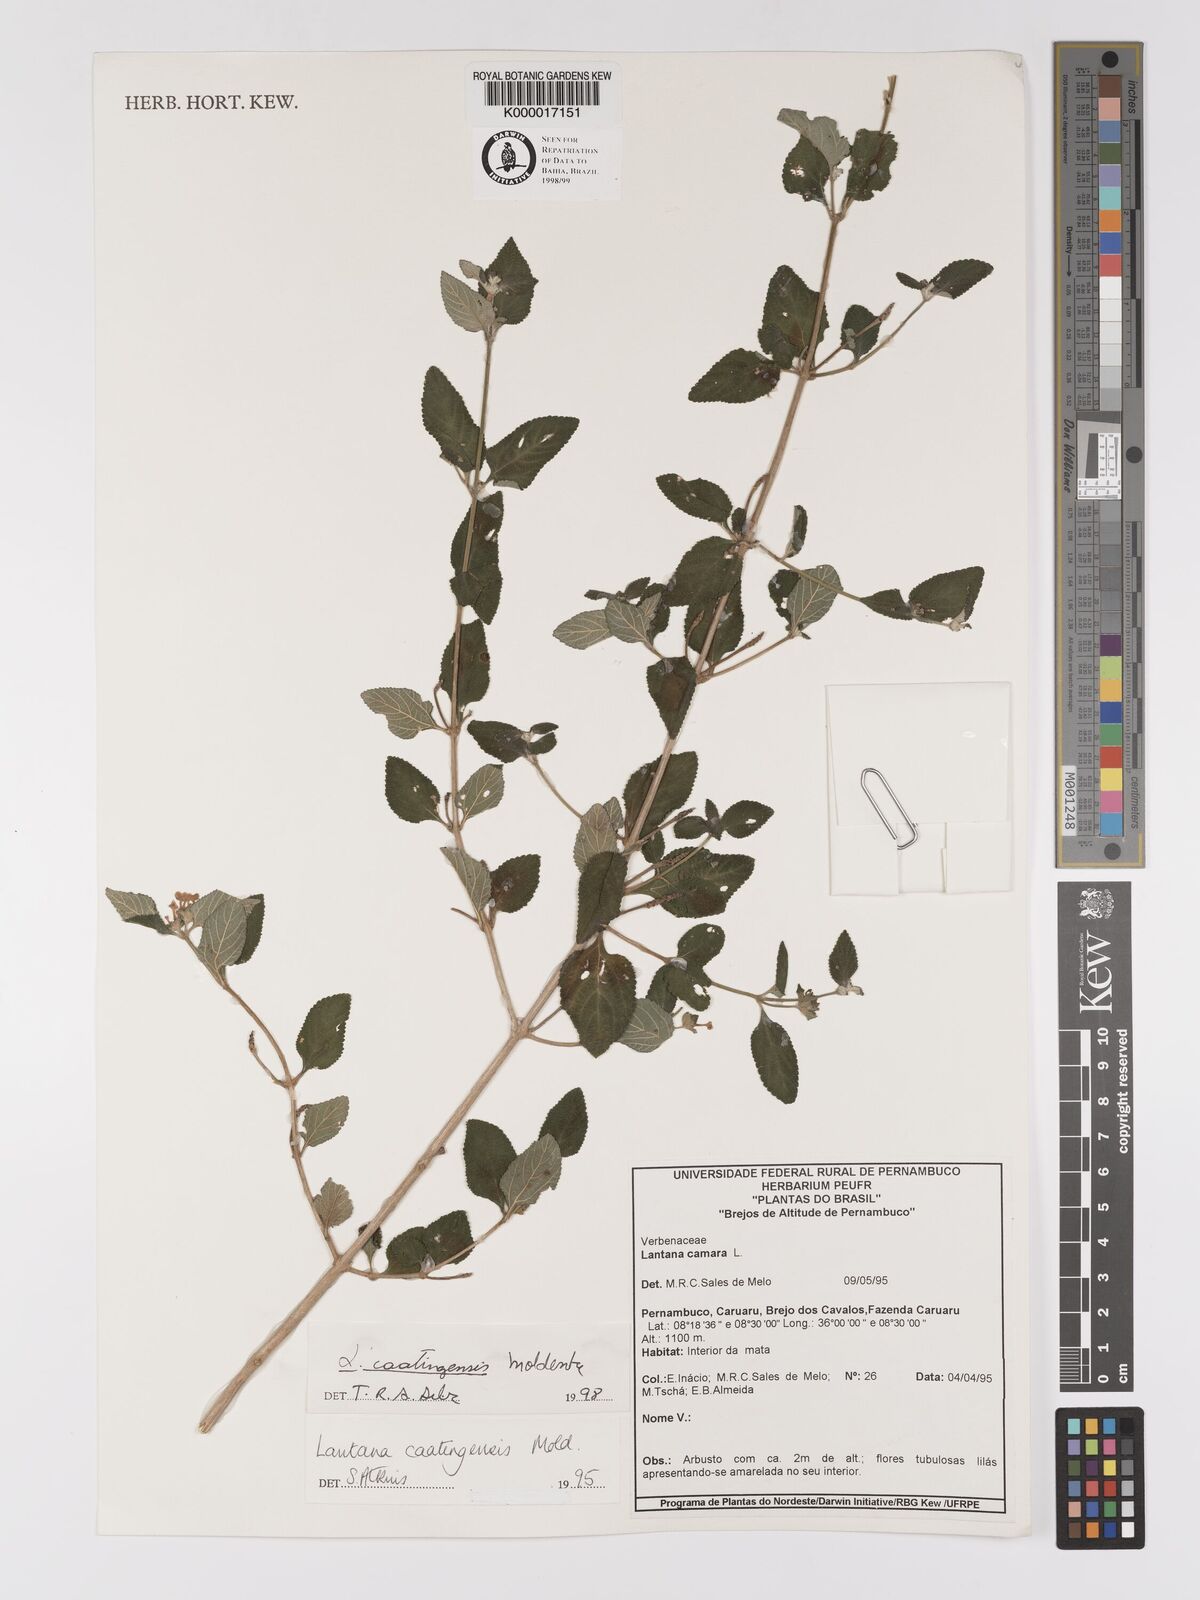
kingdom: Plantae
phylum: Tracheophyta
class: Magnoliopsida
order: Lamiales
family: Verbenaceae
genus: Lantana
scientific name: Lantana caatingensis
